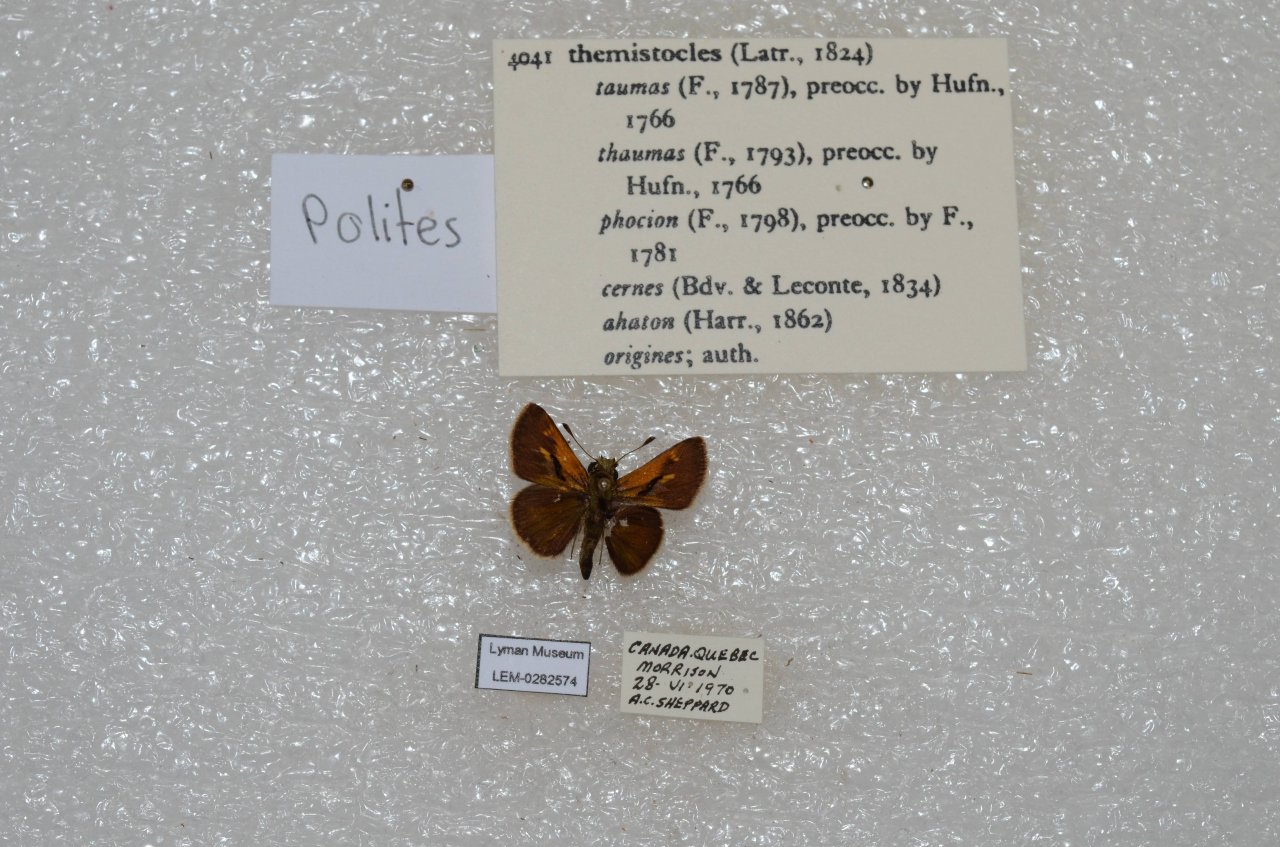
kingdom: Animalia
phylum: Arthropoda
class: Insecta
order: Lepidoptera
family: Hesperiidae
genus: Polites
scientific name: Polites themistocles
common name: Tawny-edged Skipper
